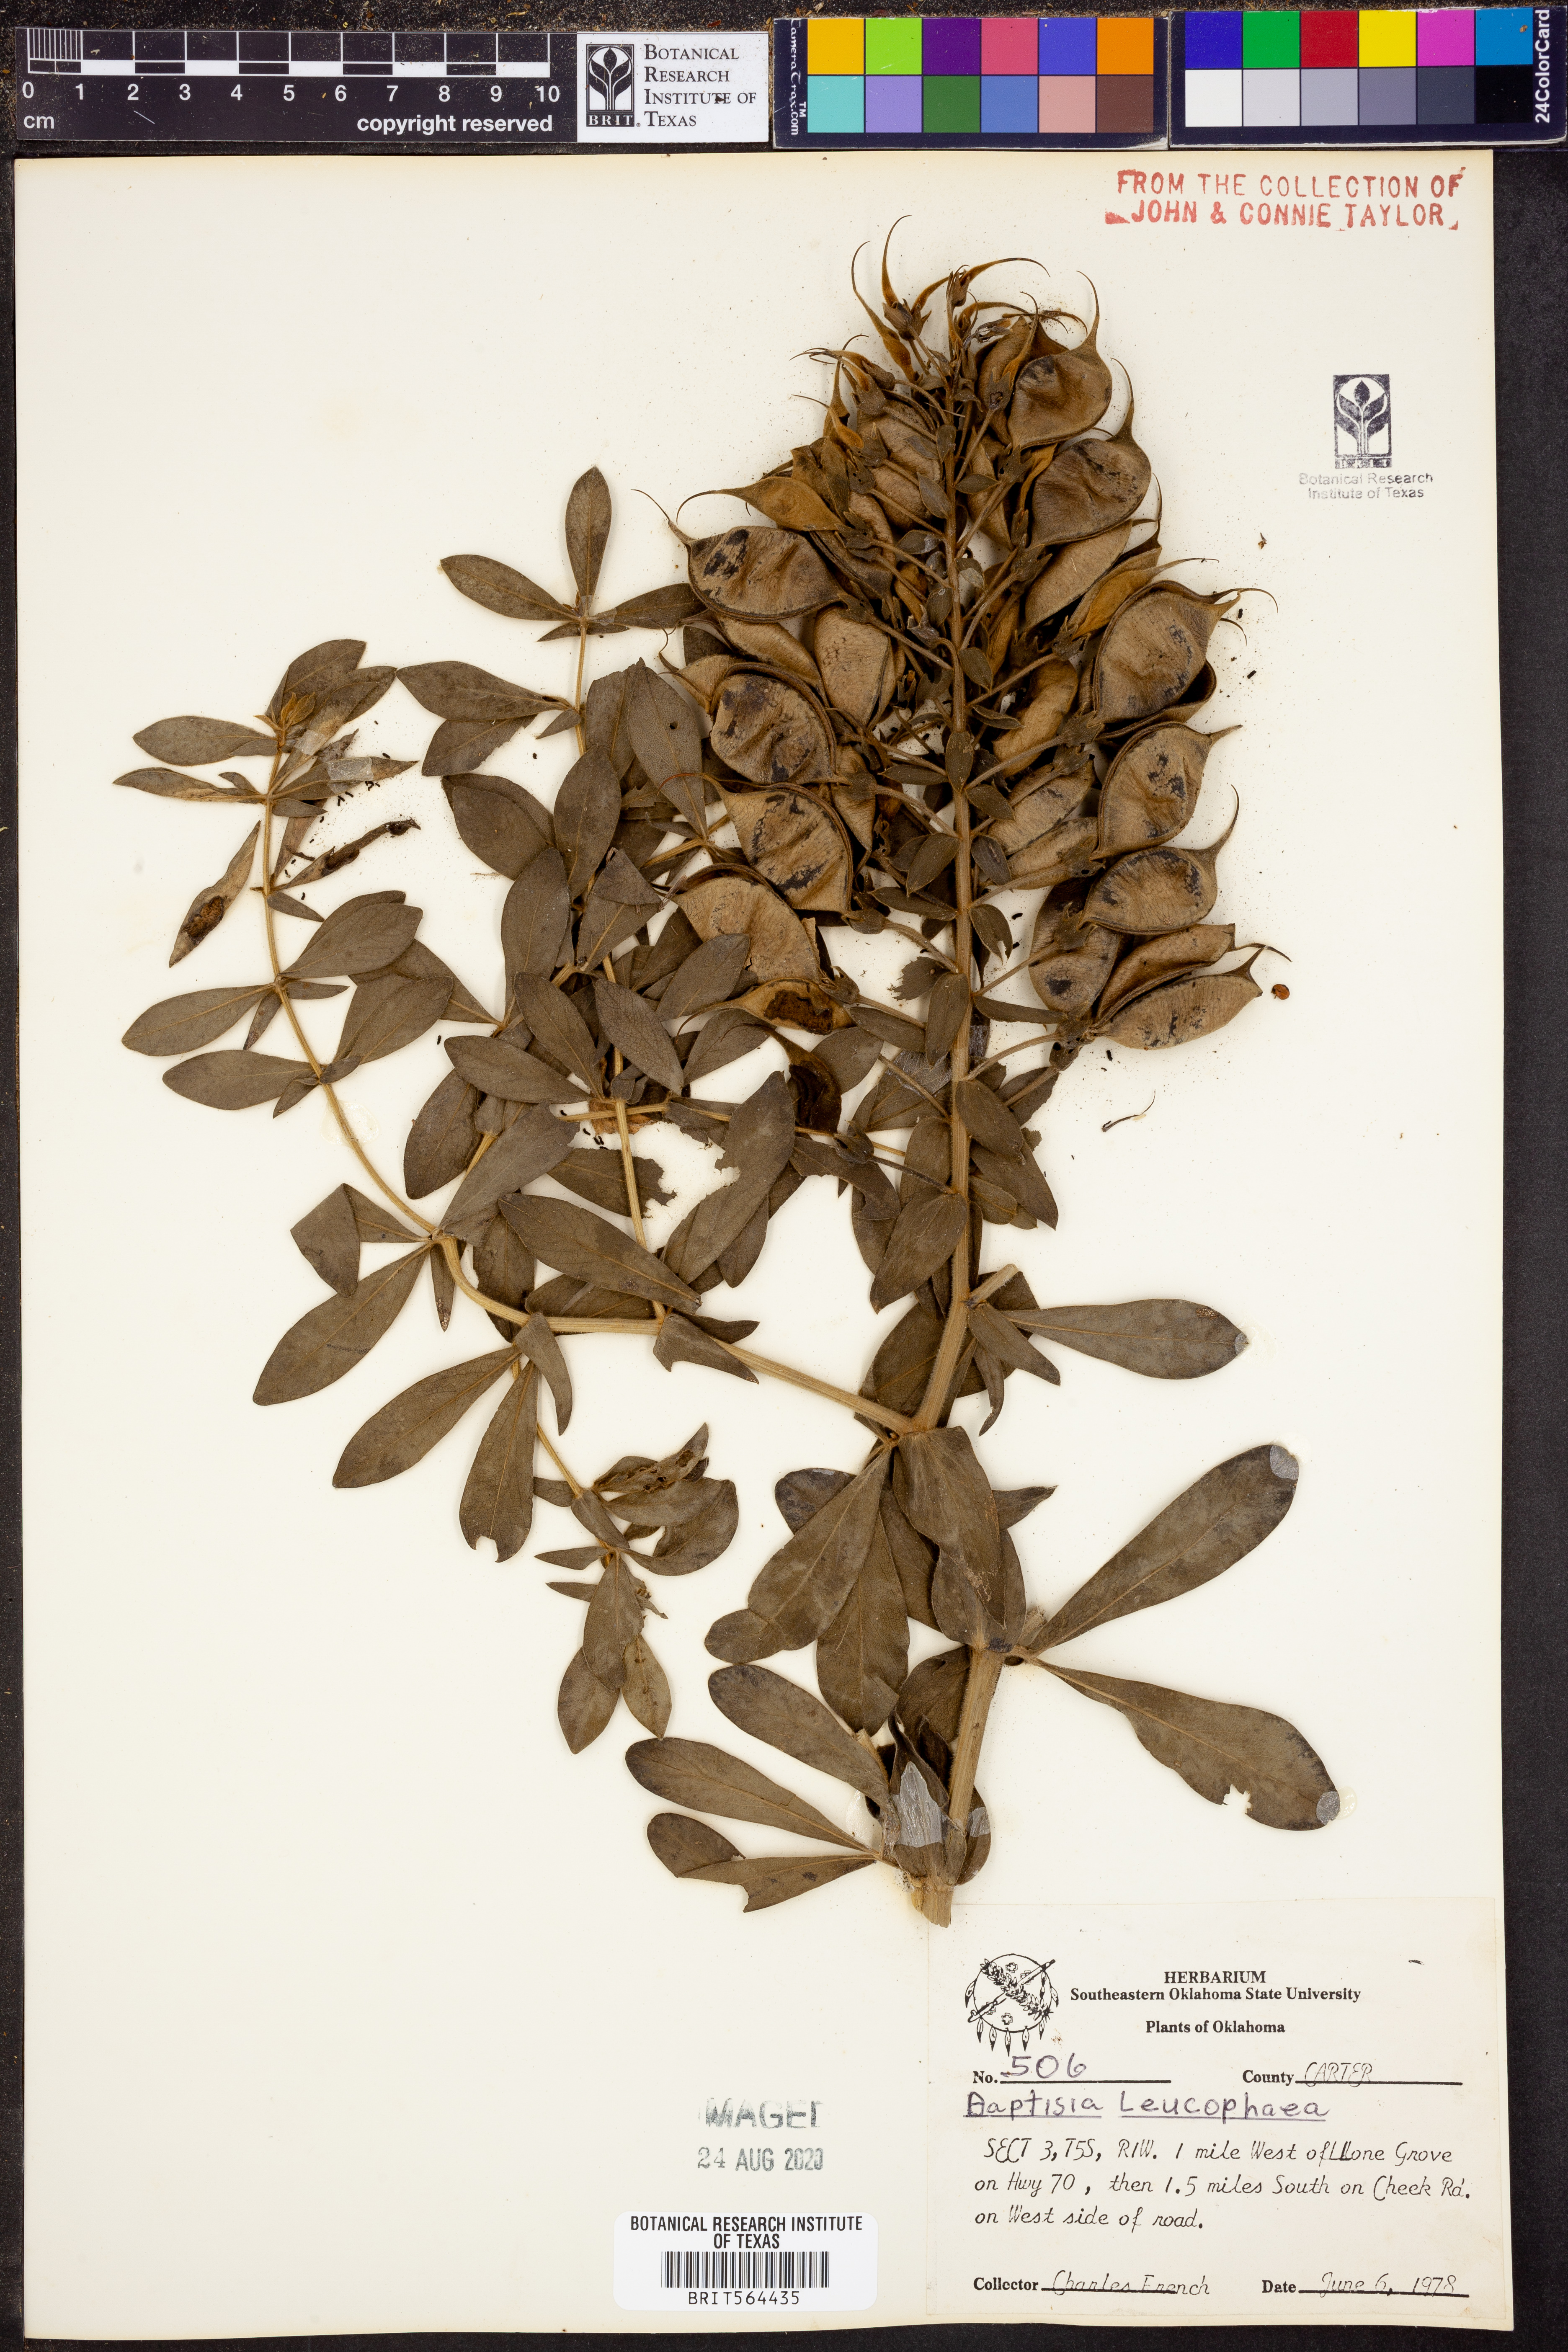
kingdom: Plantae
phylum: Tracheophyta
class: Magnoliopsida
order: Fabales
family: Fabaceae
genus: Baptisia
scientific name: Baptisia alba
